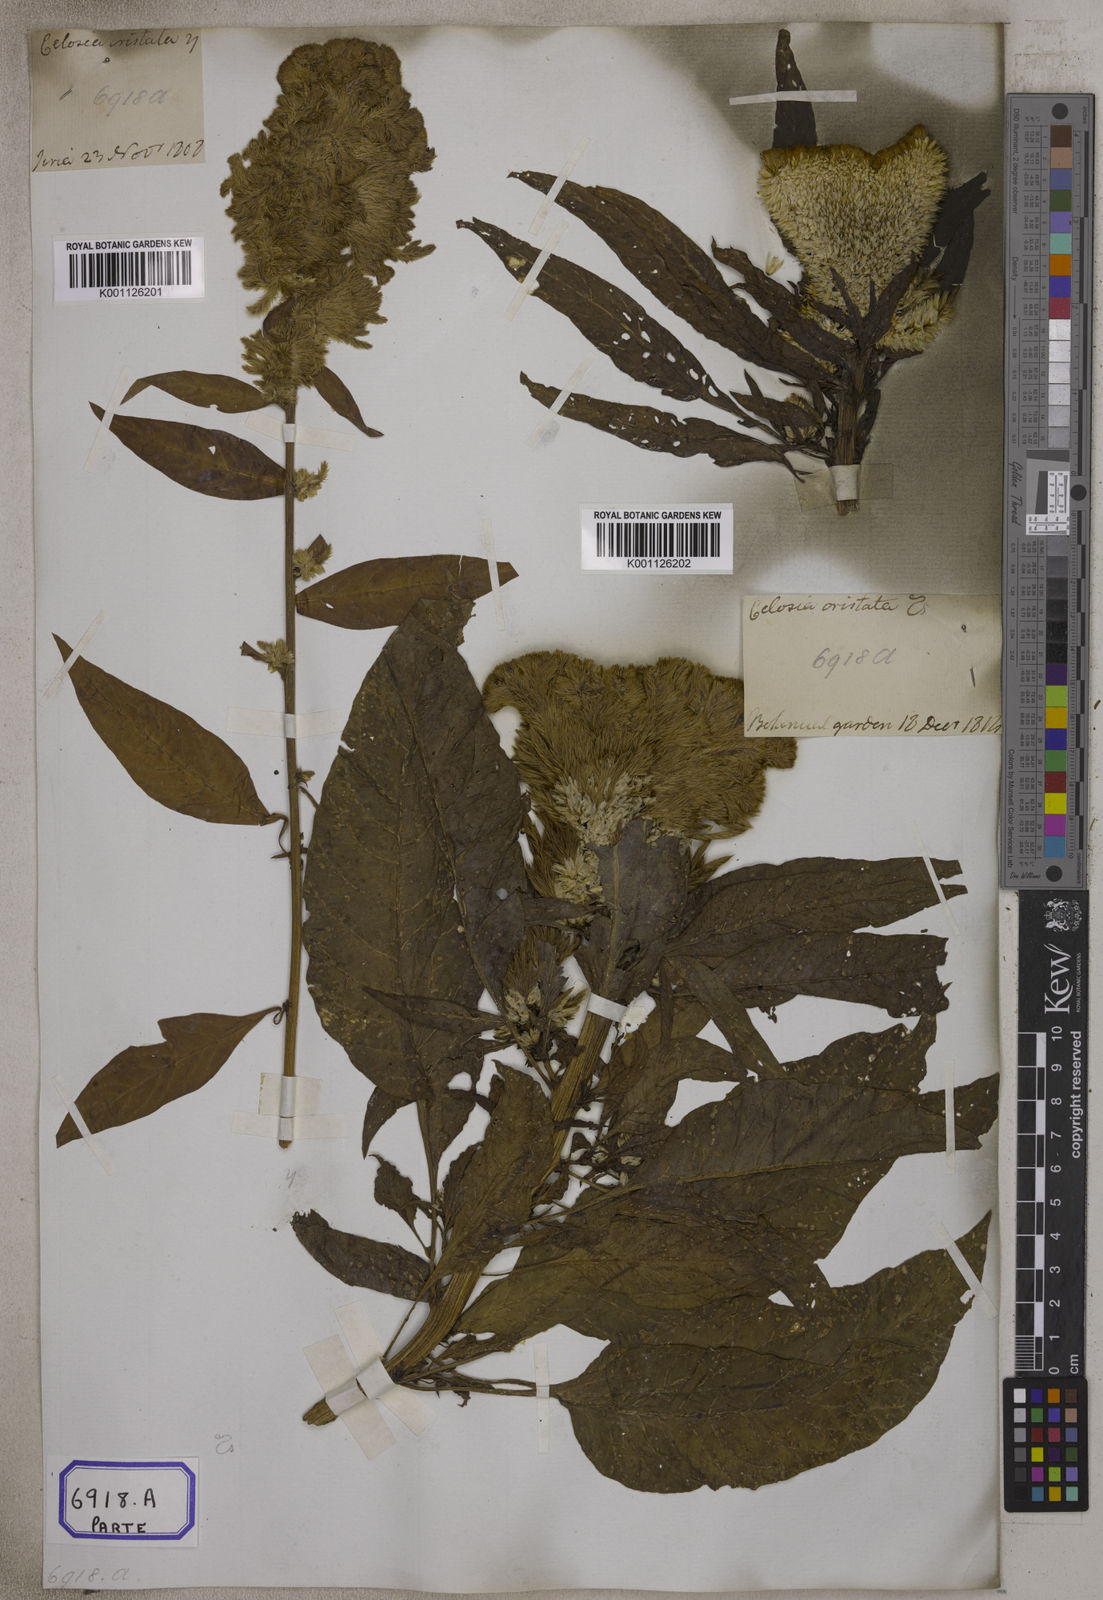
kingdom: Plantae
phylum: Tracheophyta
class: Magnoliopsida
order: Caryophyllales
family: Amaranthaceae
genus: Celosia
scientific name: Celosia argentea
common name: Feather cockscomb
